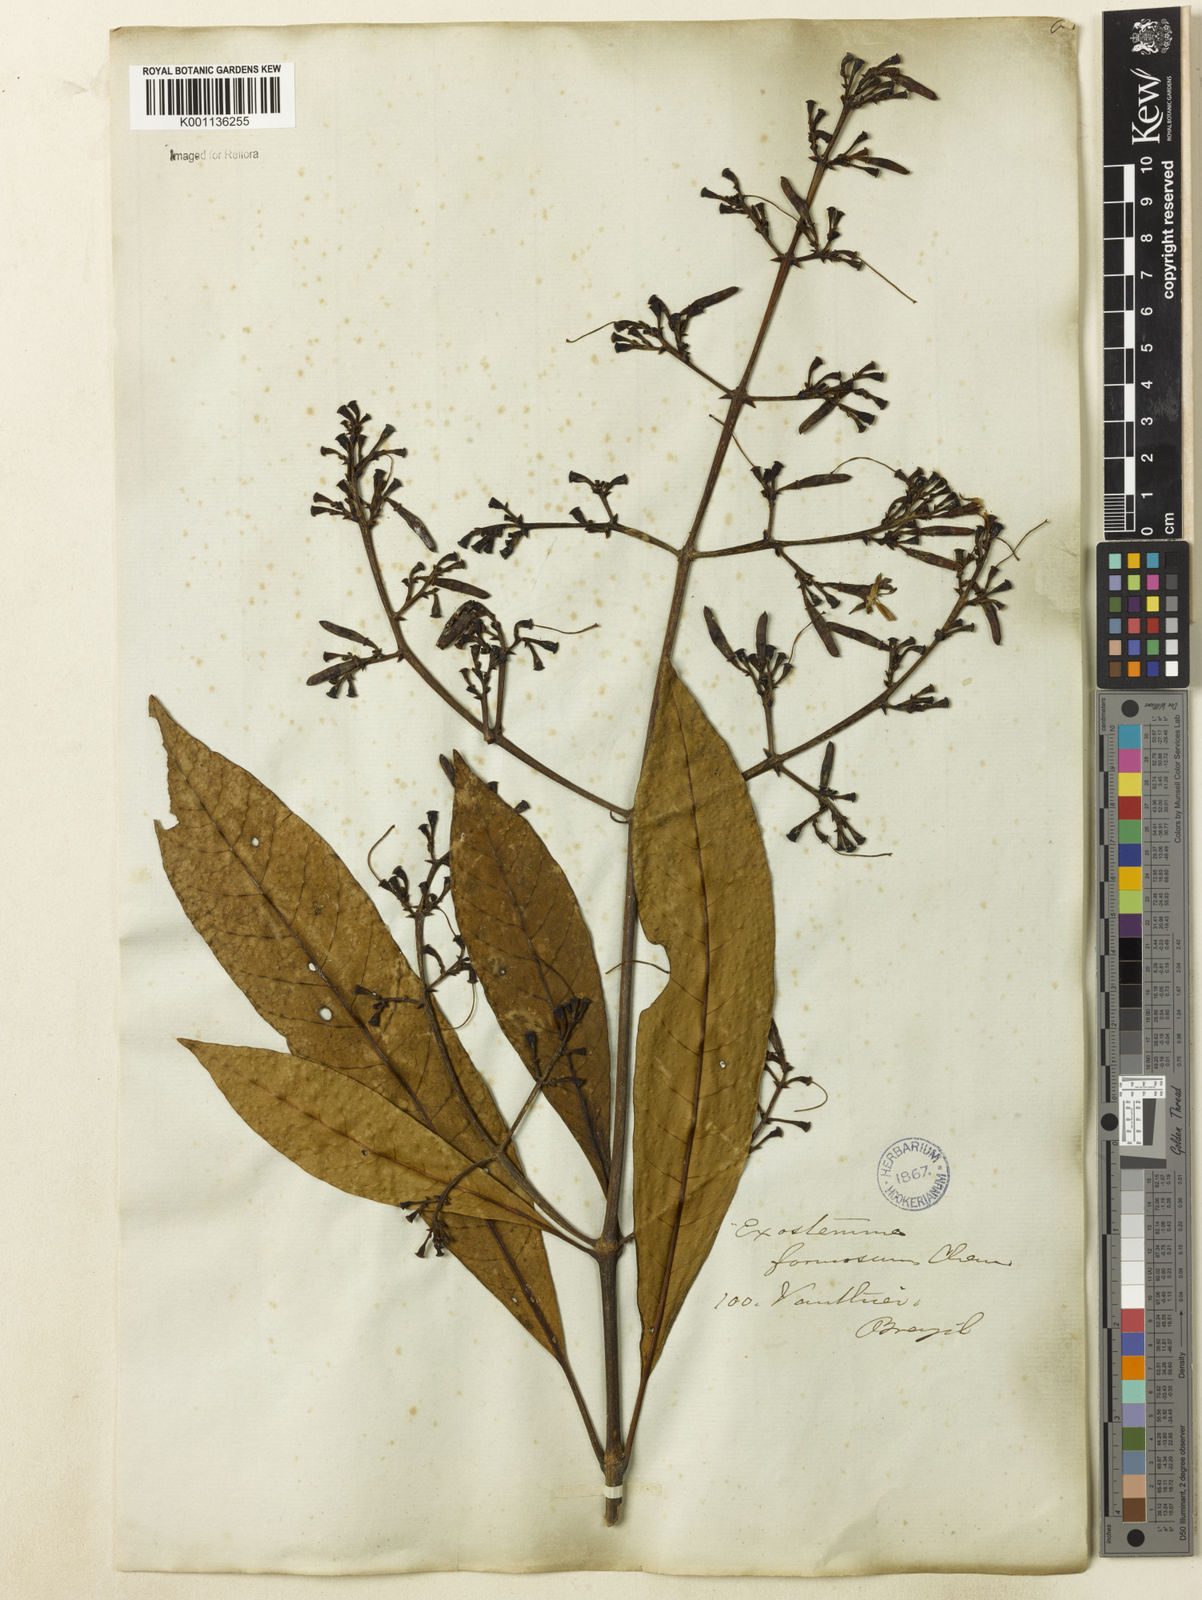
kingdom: Plantae
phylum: Tracheophyta
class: Magnoliopsida
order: Gentianales
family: Rubiaceae
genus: Rustia
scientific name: Rustia formosa
